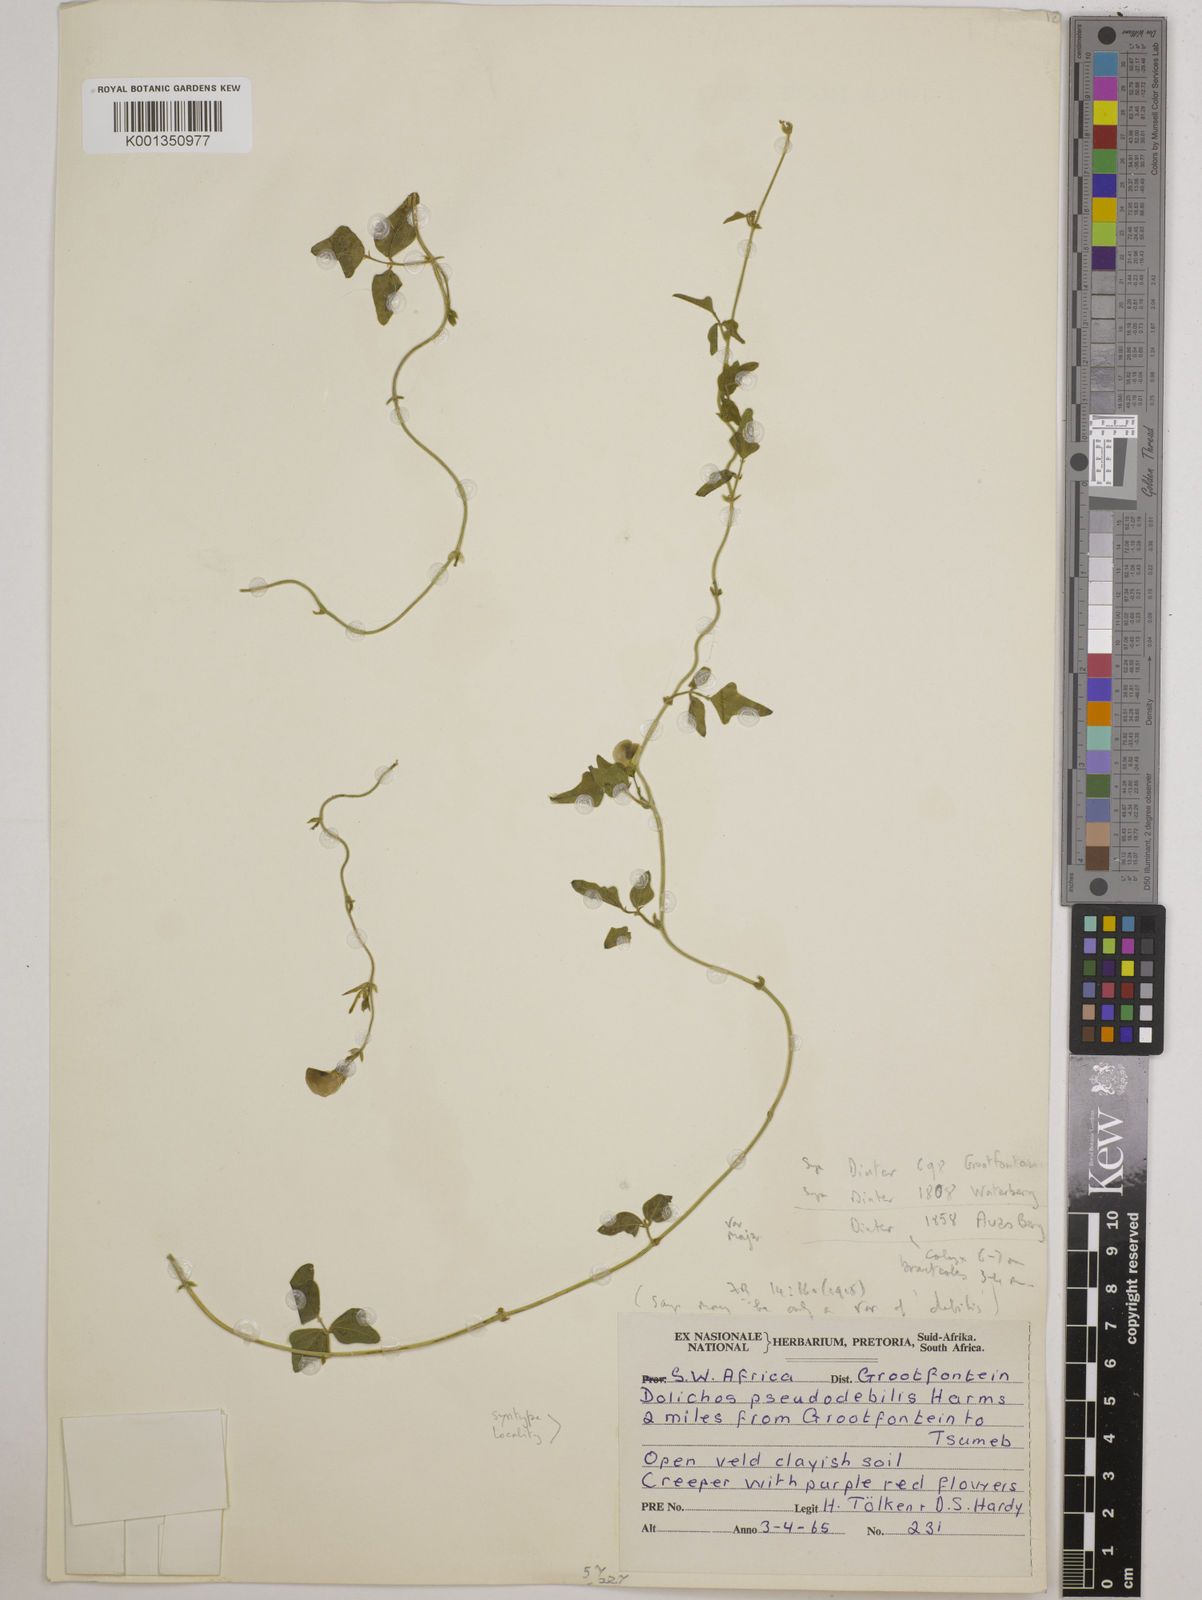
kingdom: Plantae
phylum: Tracheophyta
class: Magnoliopsida
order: Fabales
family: Fabaceae
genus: Dolichos
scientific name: Dolichos
